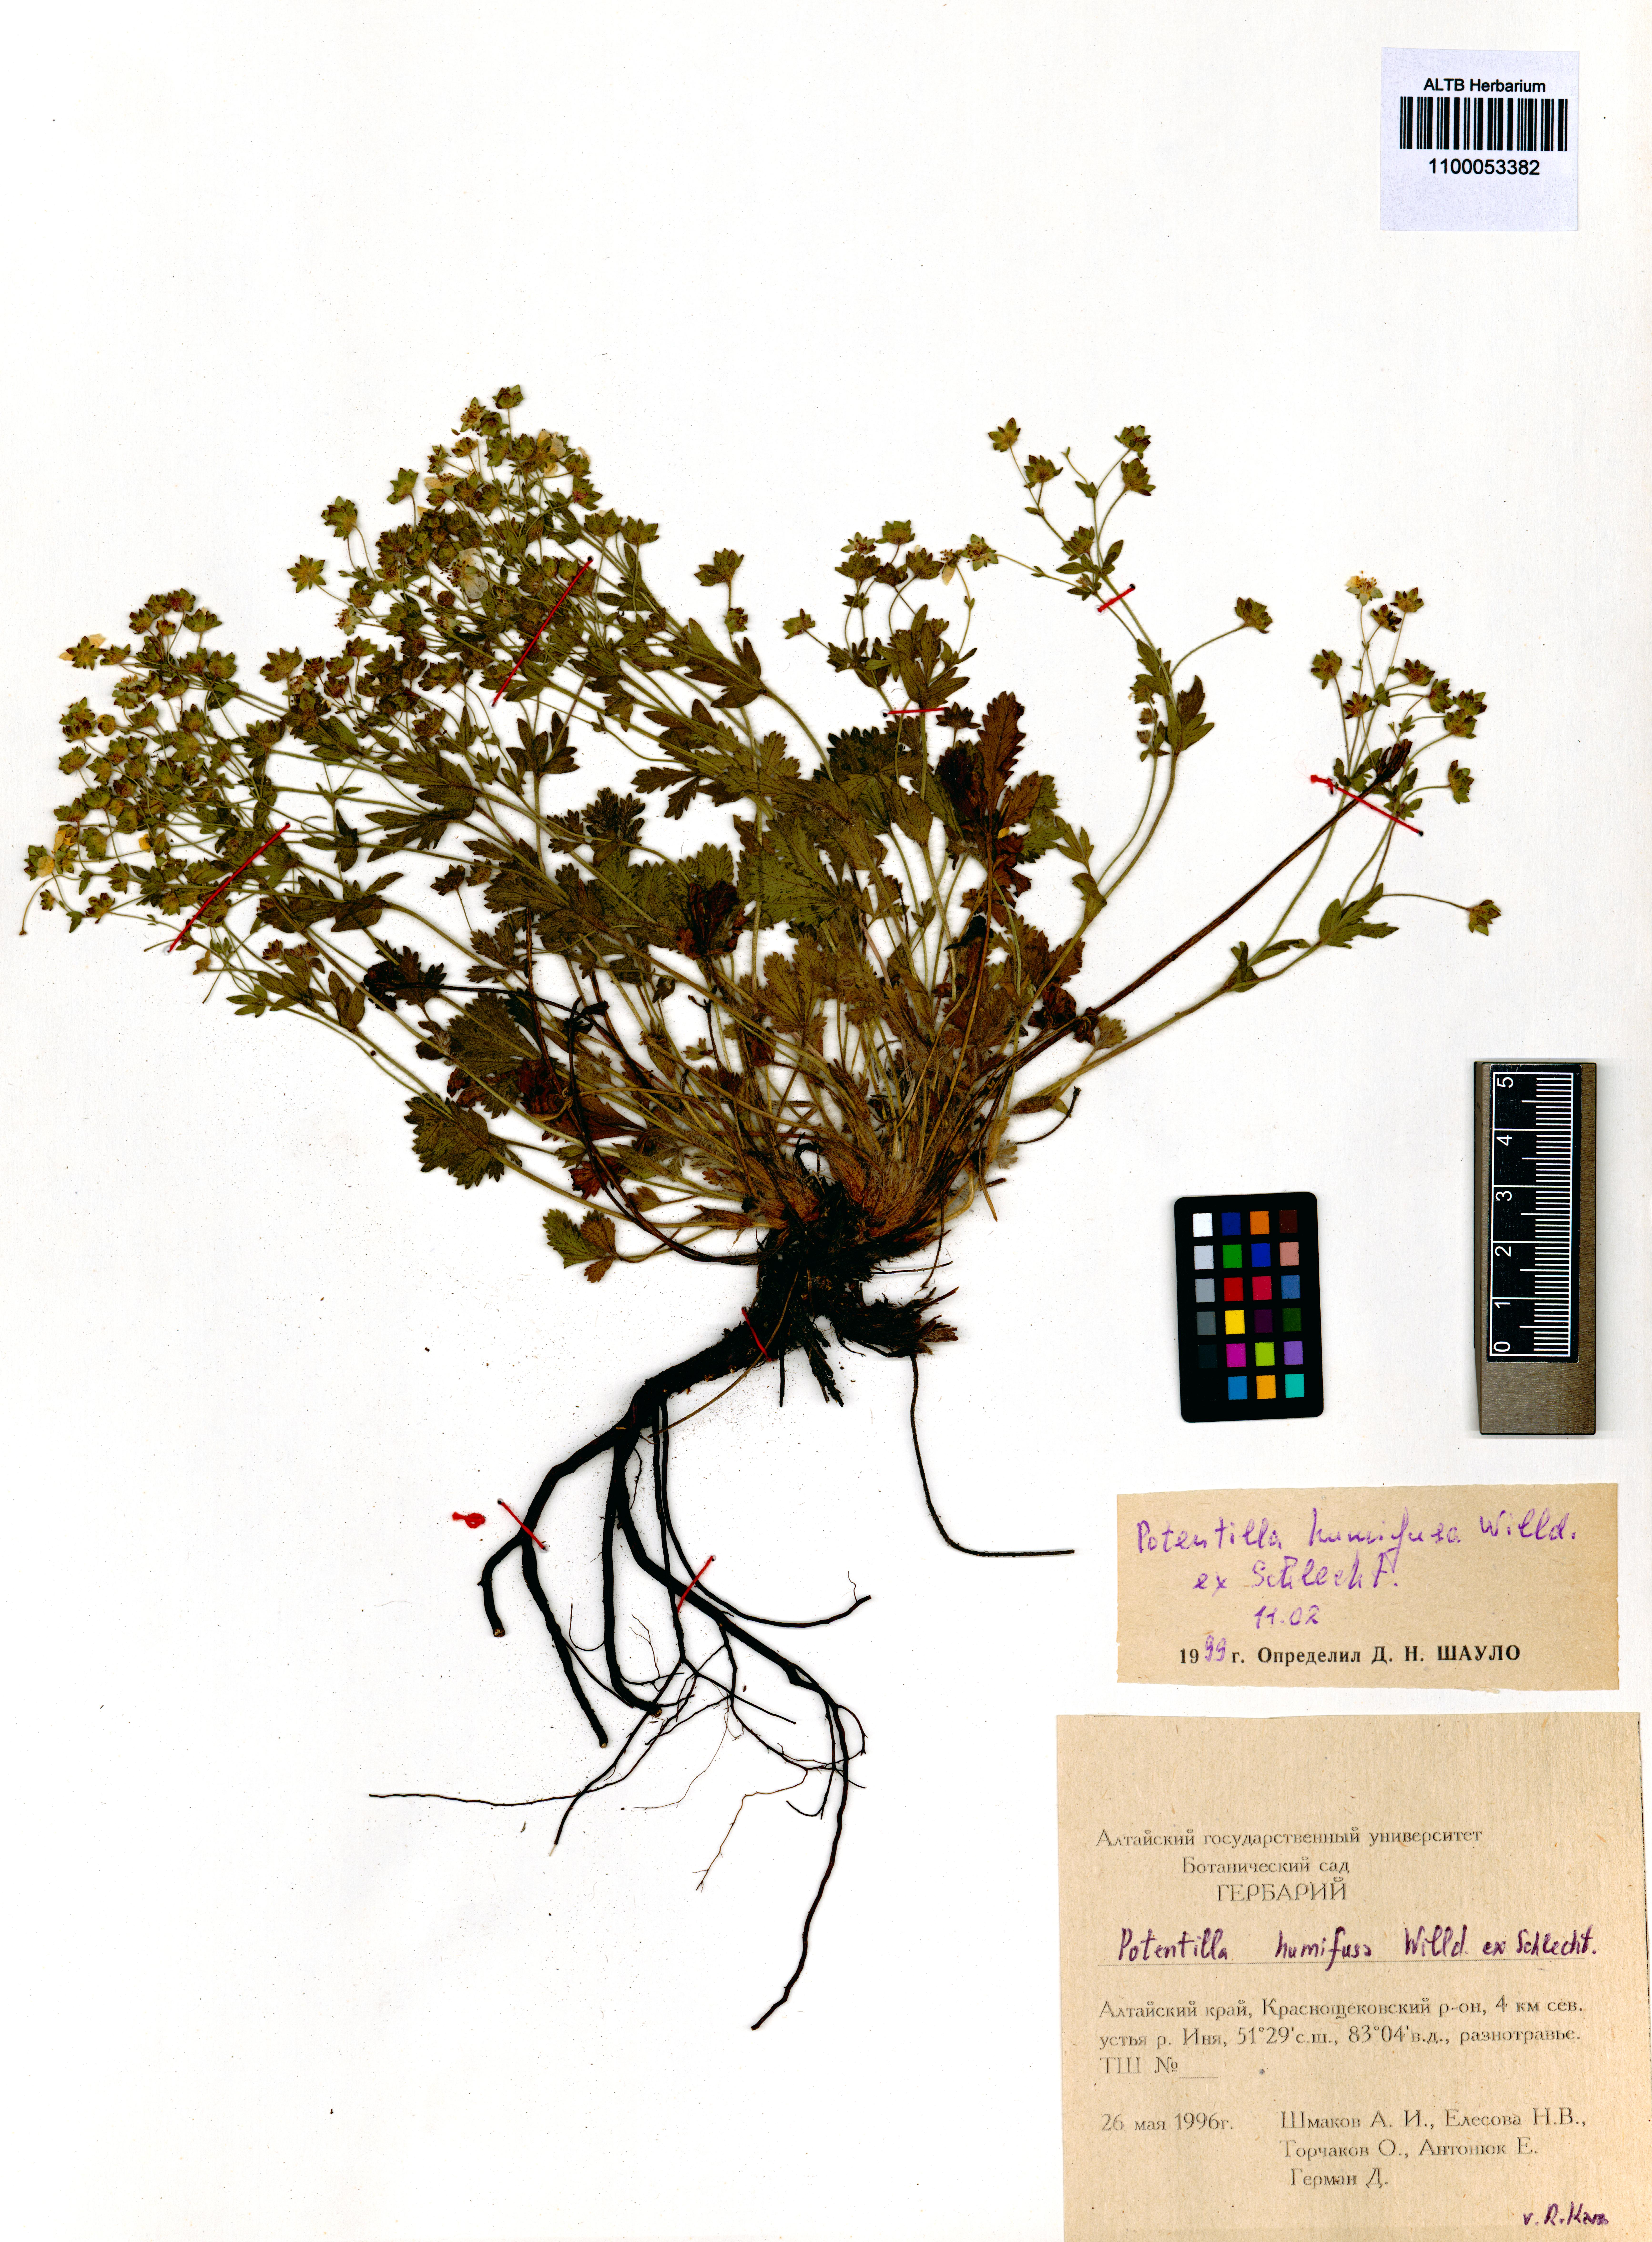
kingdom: Plantae
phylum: Tracheophyta
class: Magnoliopsida
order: Rosales
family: Rosaceae
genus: Potentilla
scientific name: Potentilla humifusa
